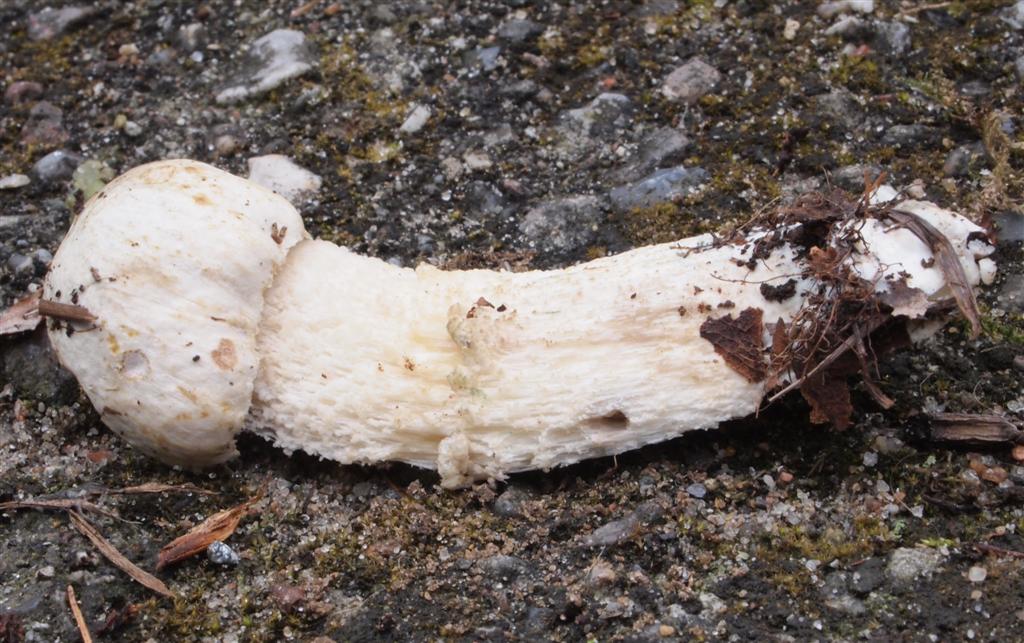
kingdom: Fungi
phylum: Basidiomycota
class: Agaricomycetes
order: Boletales
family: Boletaceae
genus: Leccinum
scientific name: Leccinum scabrum
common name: hvid skælrørhat
